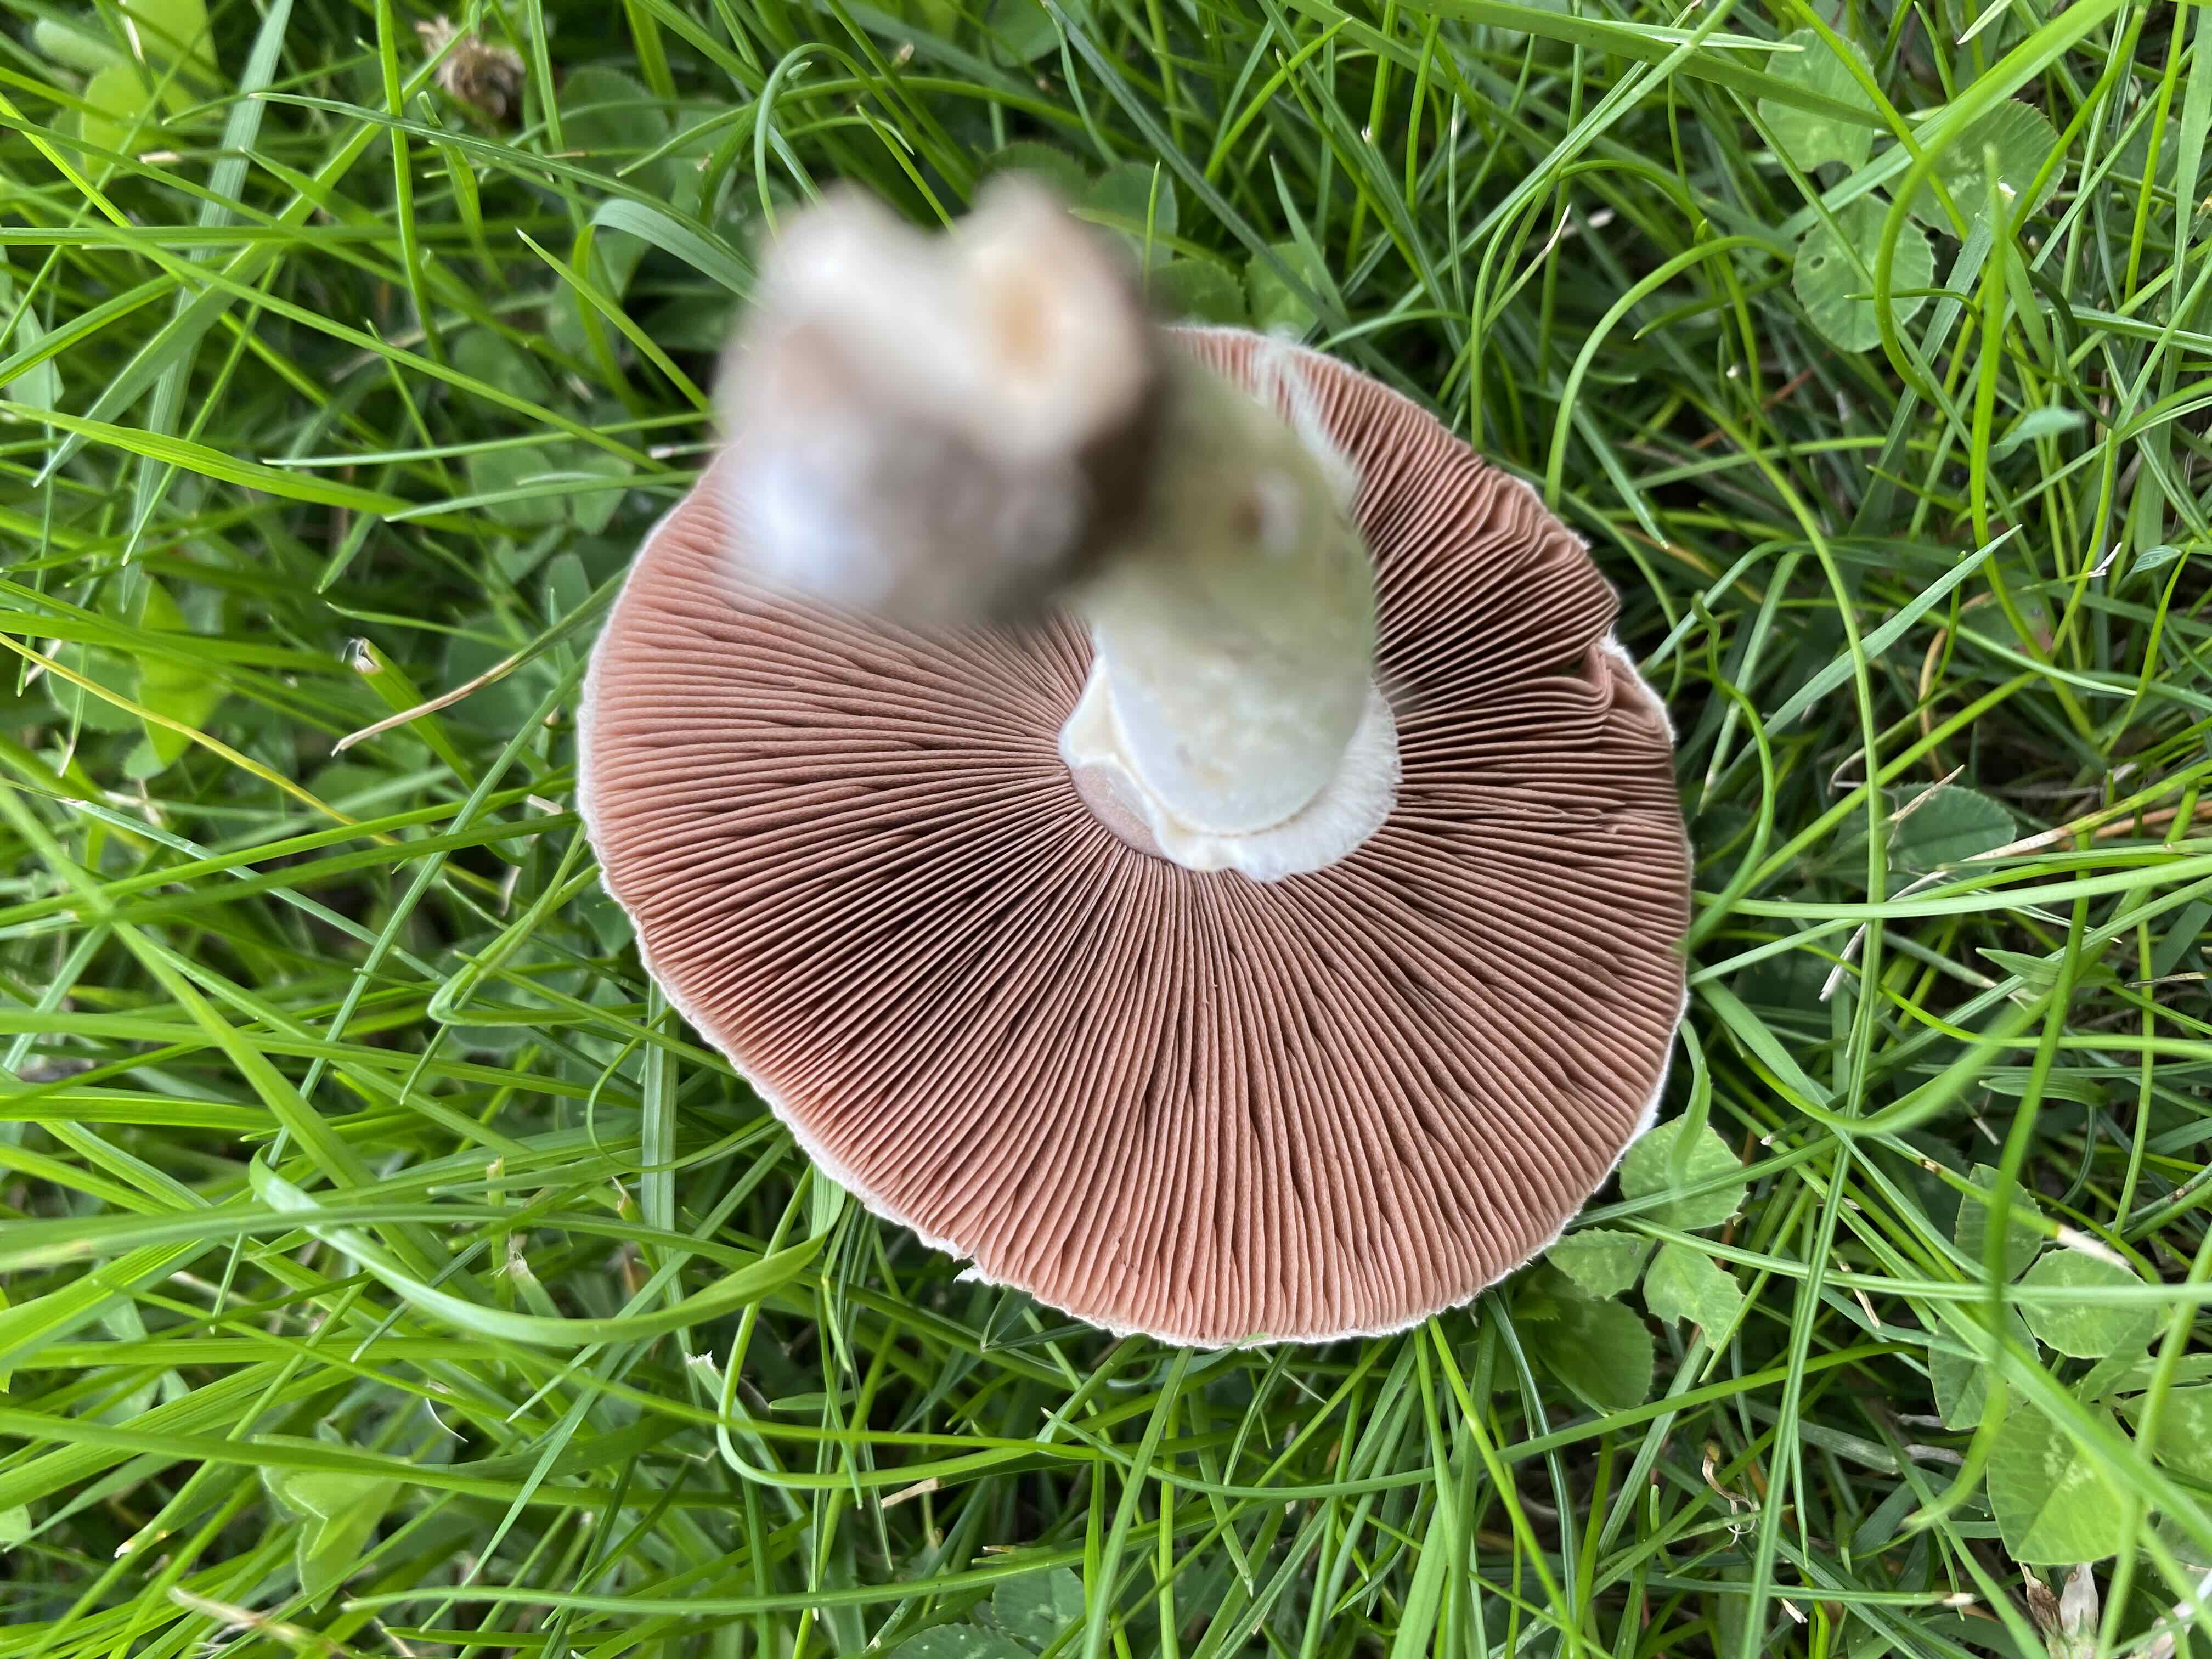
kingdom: Fungi
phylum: Basidiomycota
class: Agaricomycetes
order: Agaricales
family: Agaricaceae
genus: Agaricus
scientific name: Agaricus campestris
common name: mark-champignon
